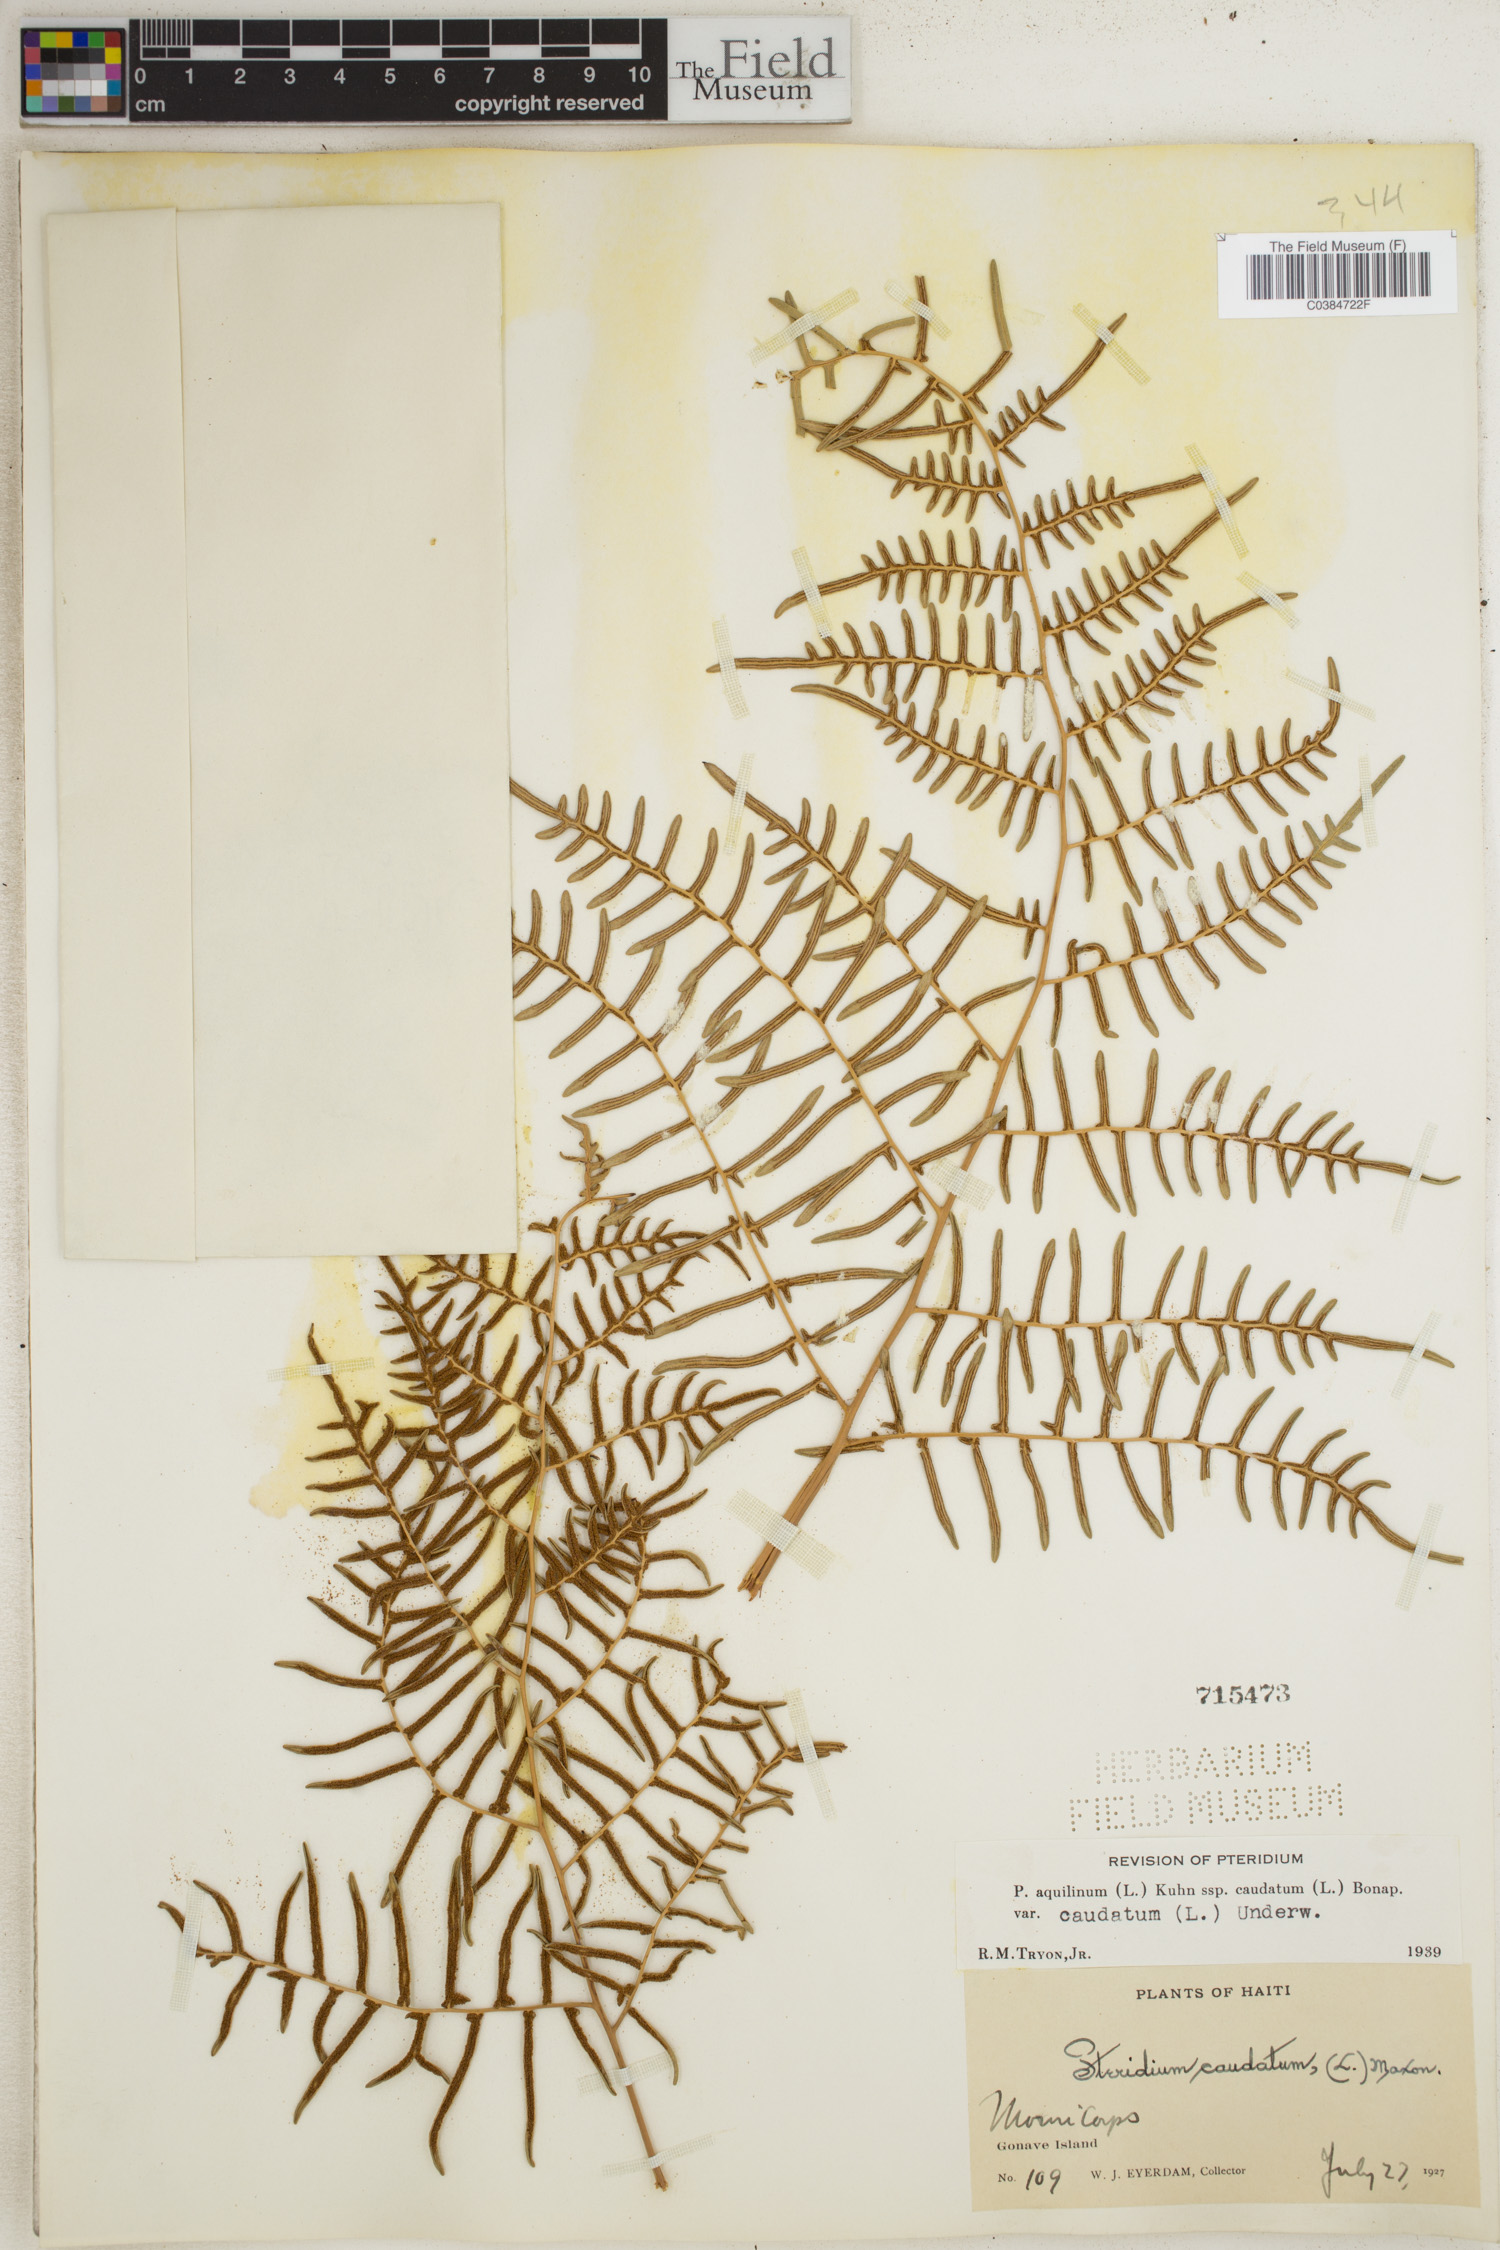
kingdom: Plantae
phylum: Tracheophyta
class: Polypodiopsida
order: Polypodiales
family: Dennstaedtiaceae
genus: Pteridium
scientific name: Pteridium caudatum
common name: Southern bracken fern
